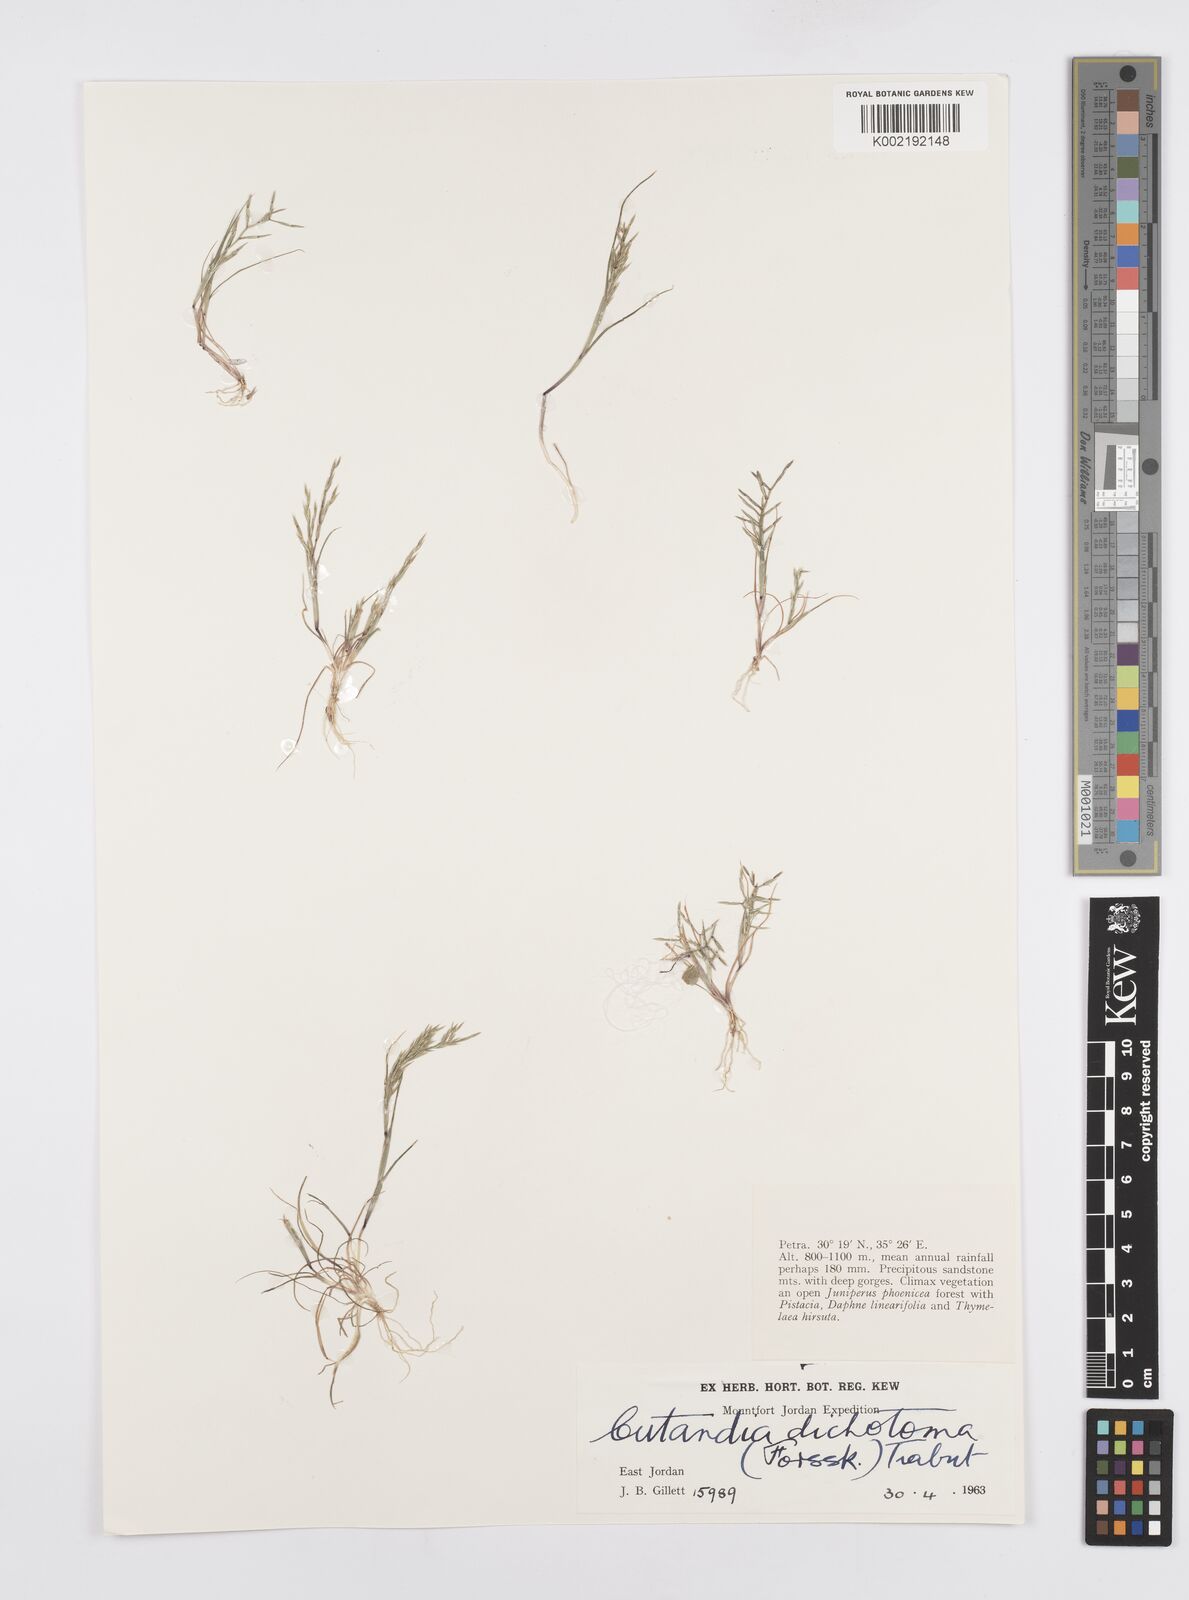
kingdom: Plantae
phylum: Tracheophyta
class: Liliopsida
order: Poales
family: Poaceae
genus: Cutandia
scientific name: Cutandia dichotoma
